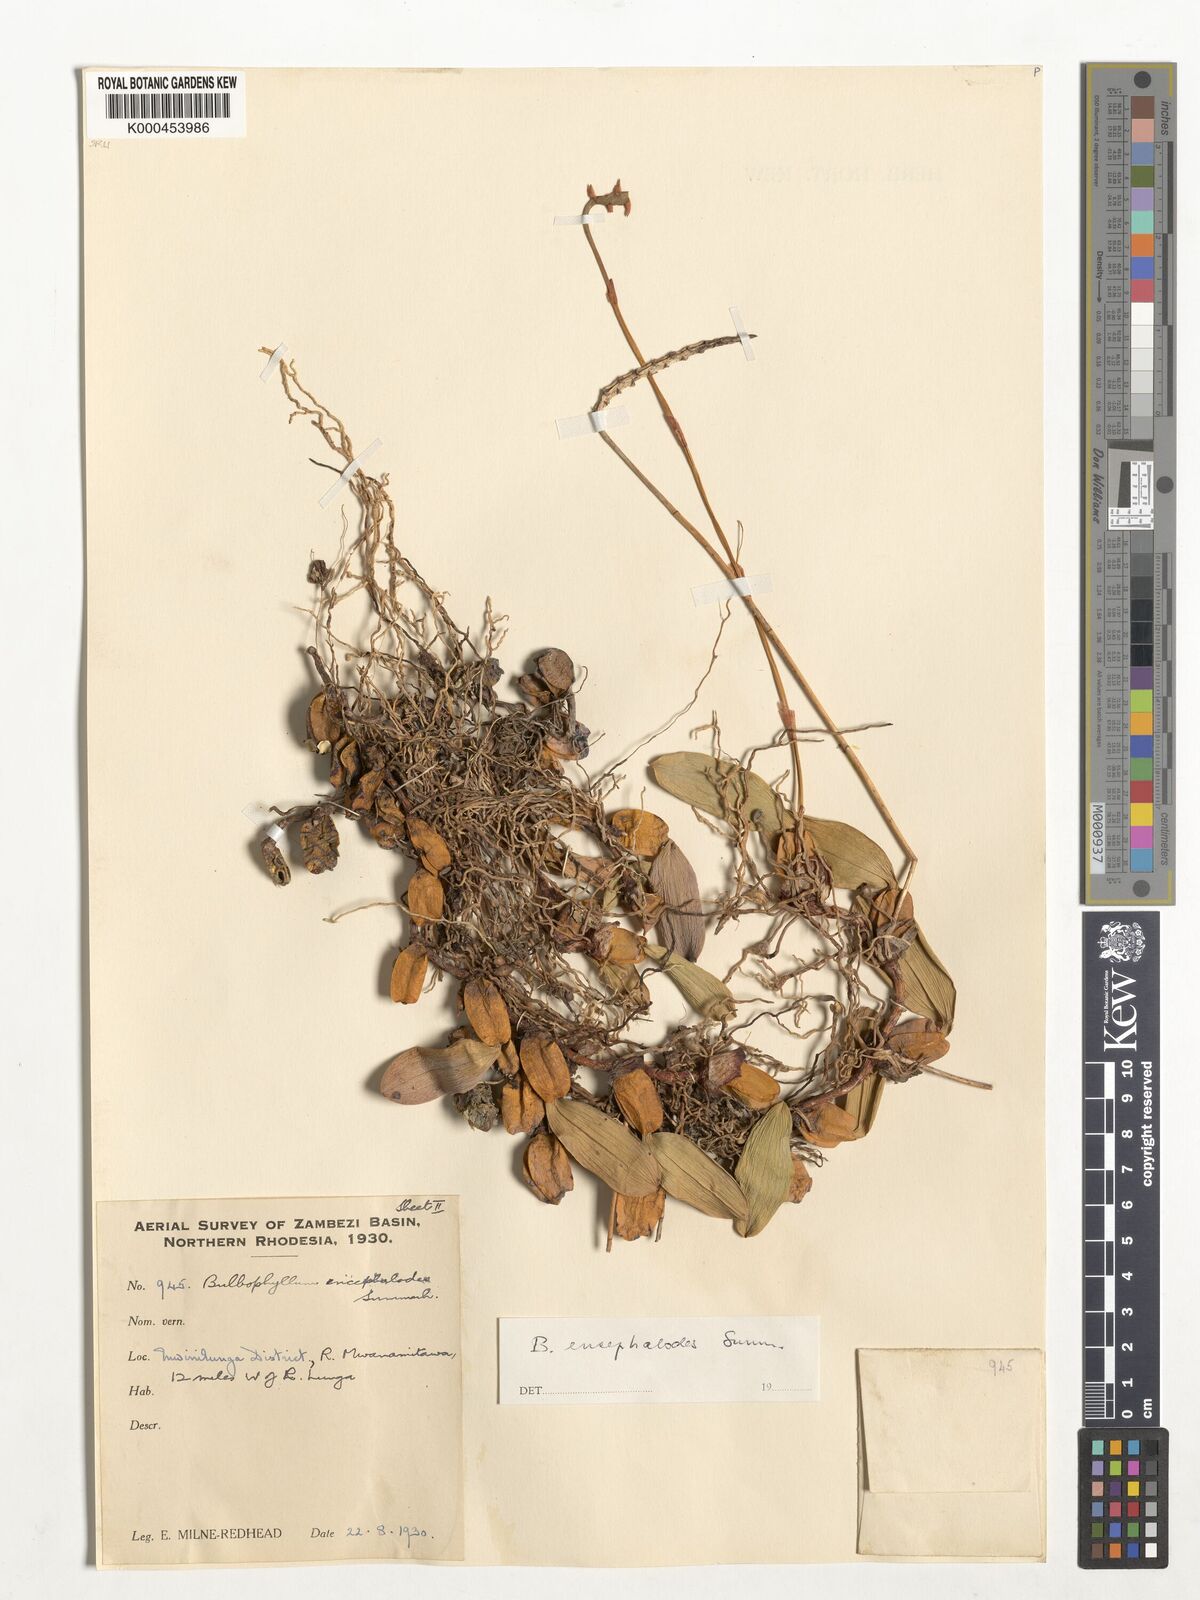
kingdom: Plantae
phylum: Tracheophyta
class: Liliopsida
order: Asparagales
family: Orchidaceae
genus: Bulbophyllum
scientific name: Bulbophyllum encephalodes
